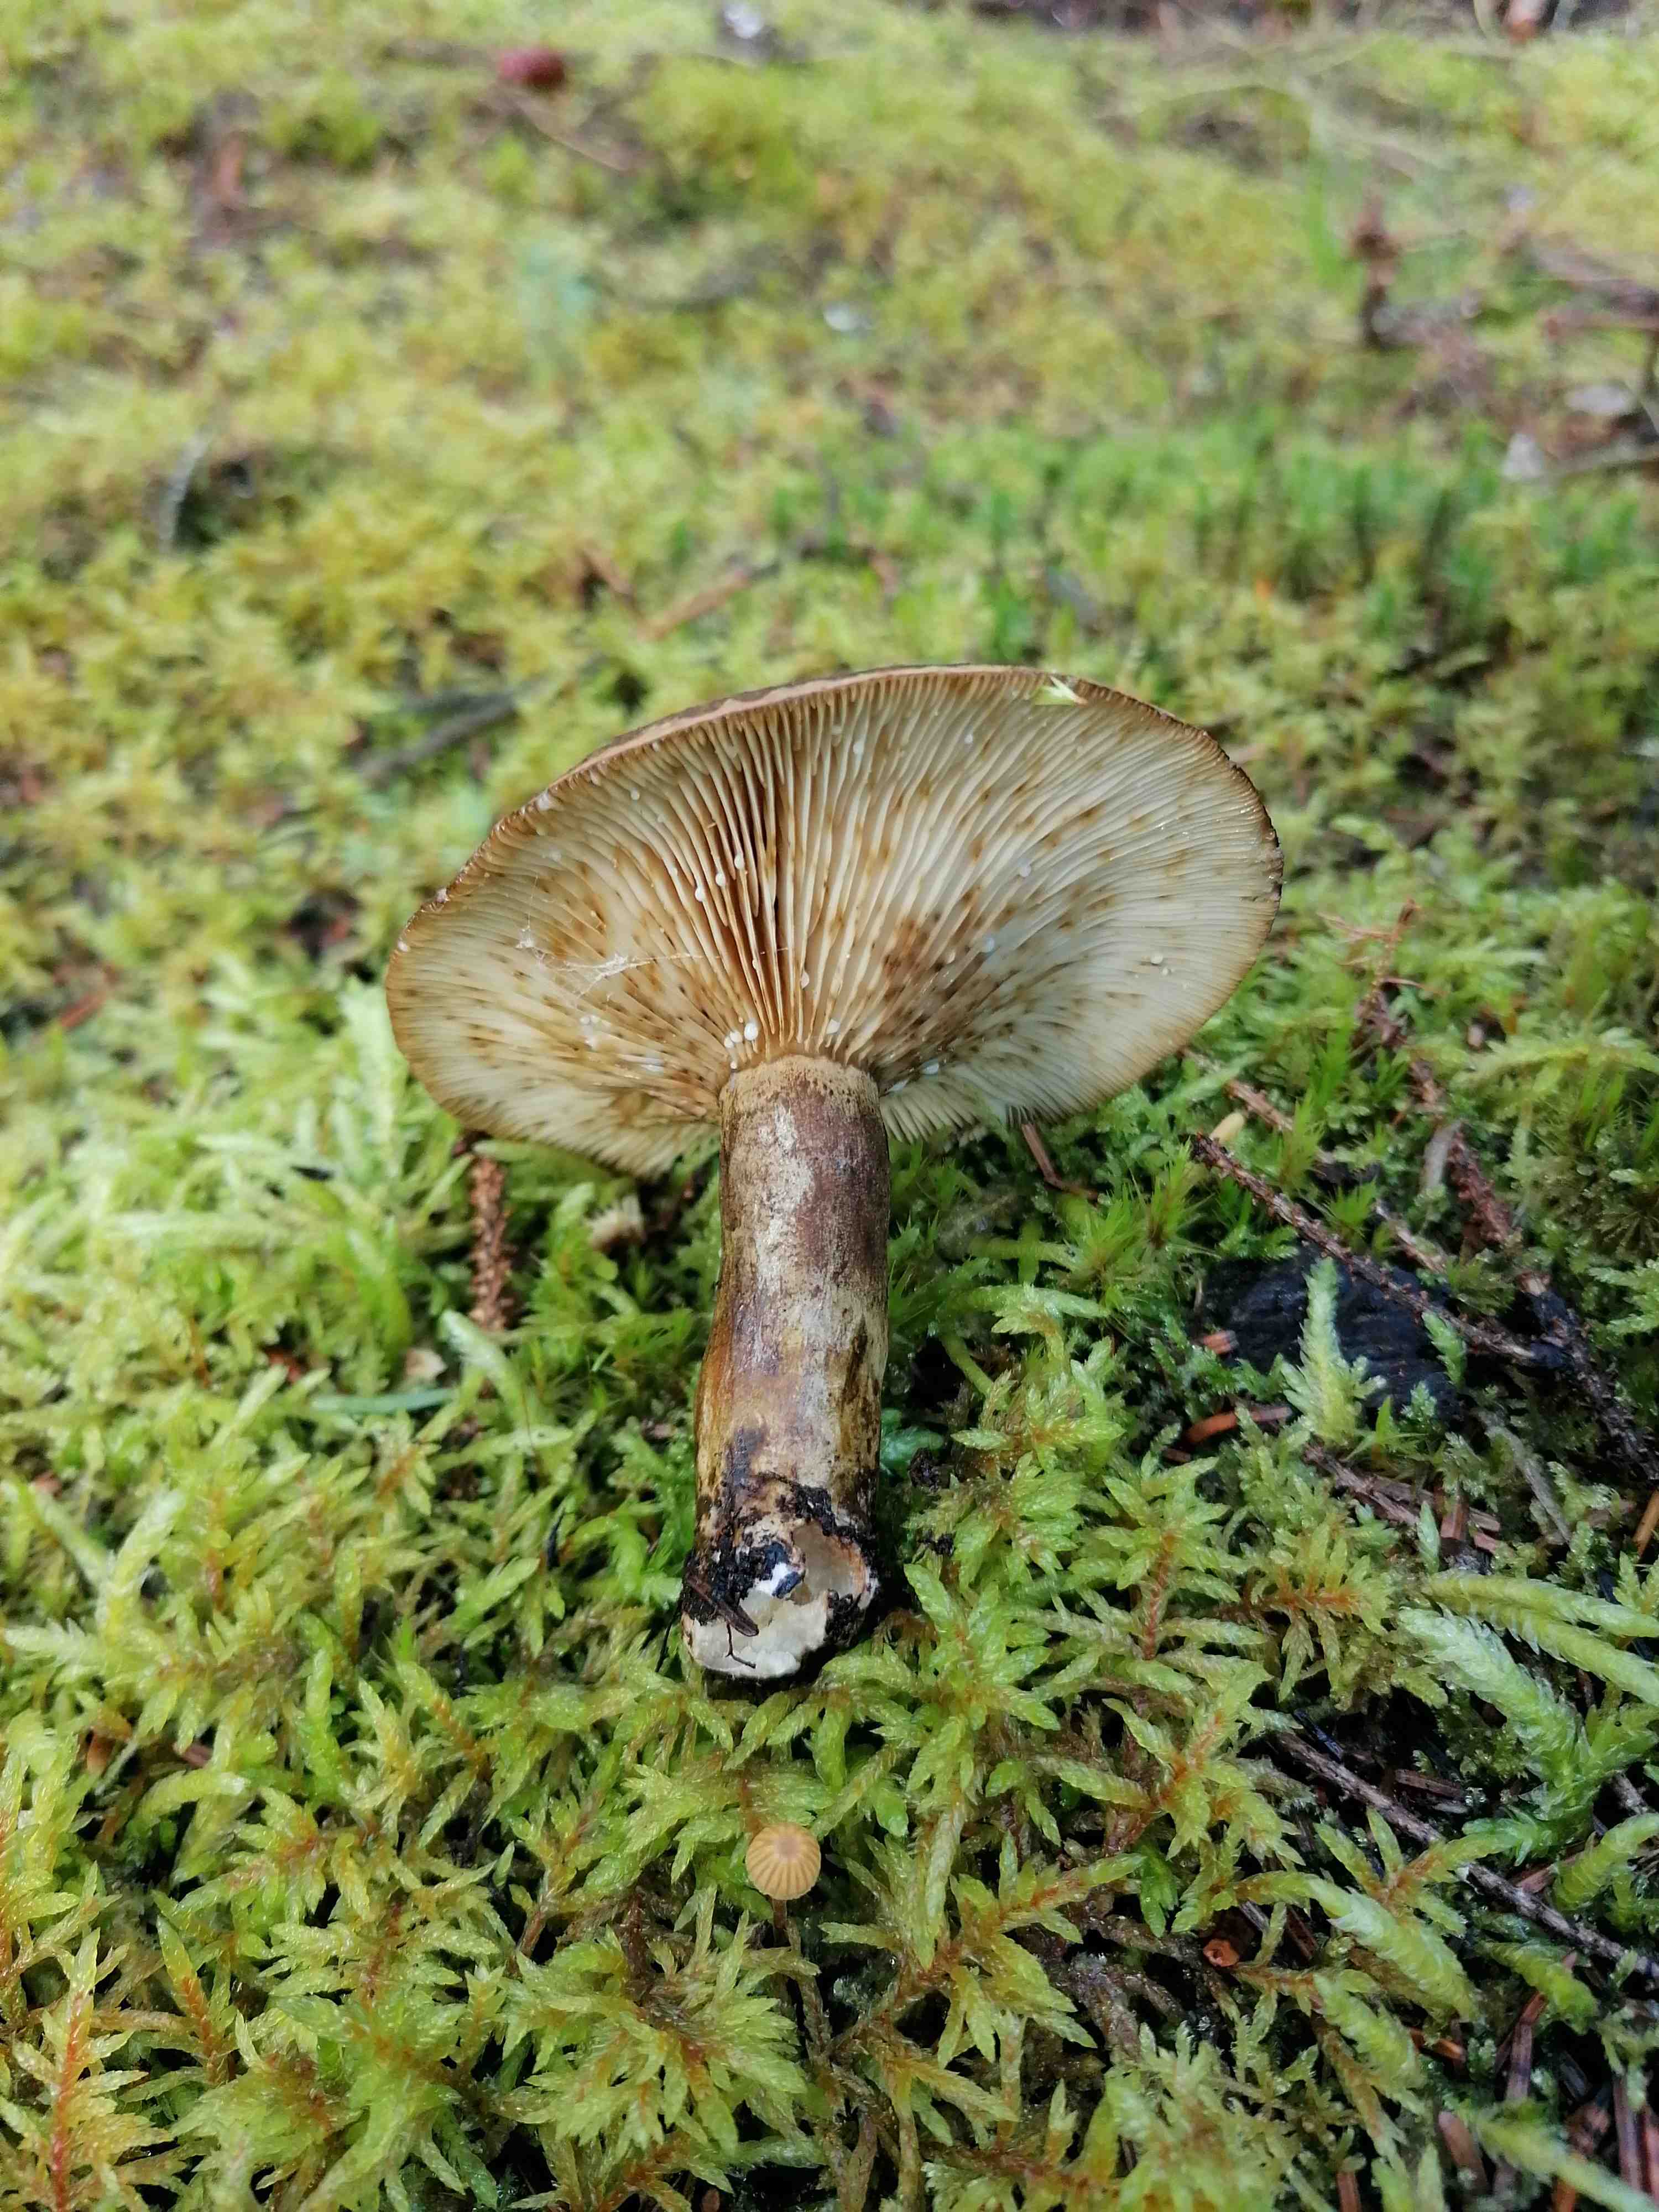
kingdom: Fungi
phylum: Basidiomycota
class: Agaricomycetes
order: Russulales
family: Russulaceae
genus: Lactarius
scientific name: Lactarius necator
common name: manddraber-mælkehat
